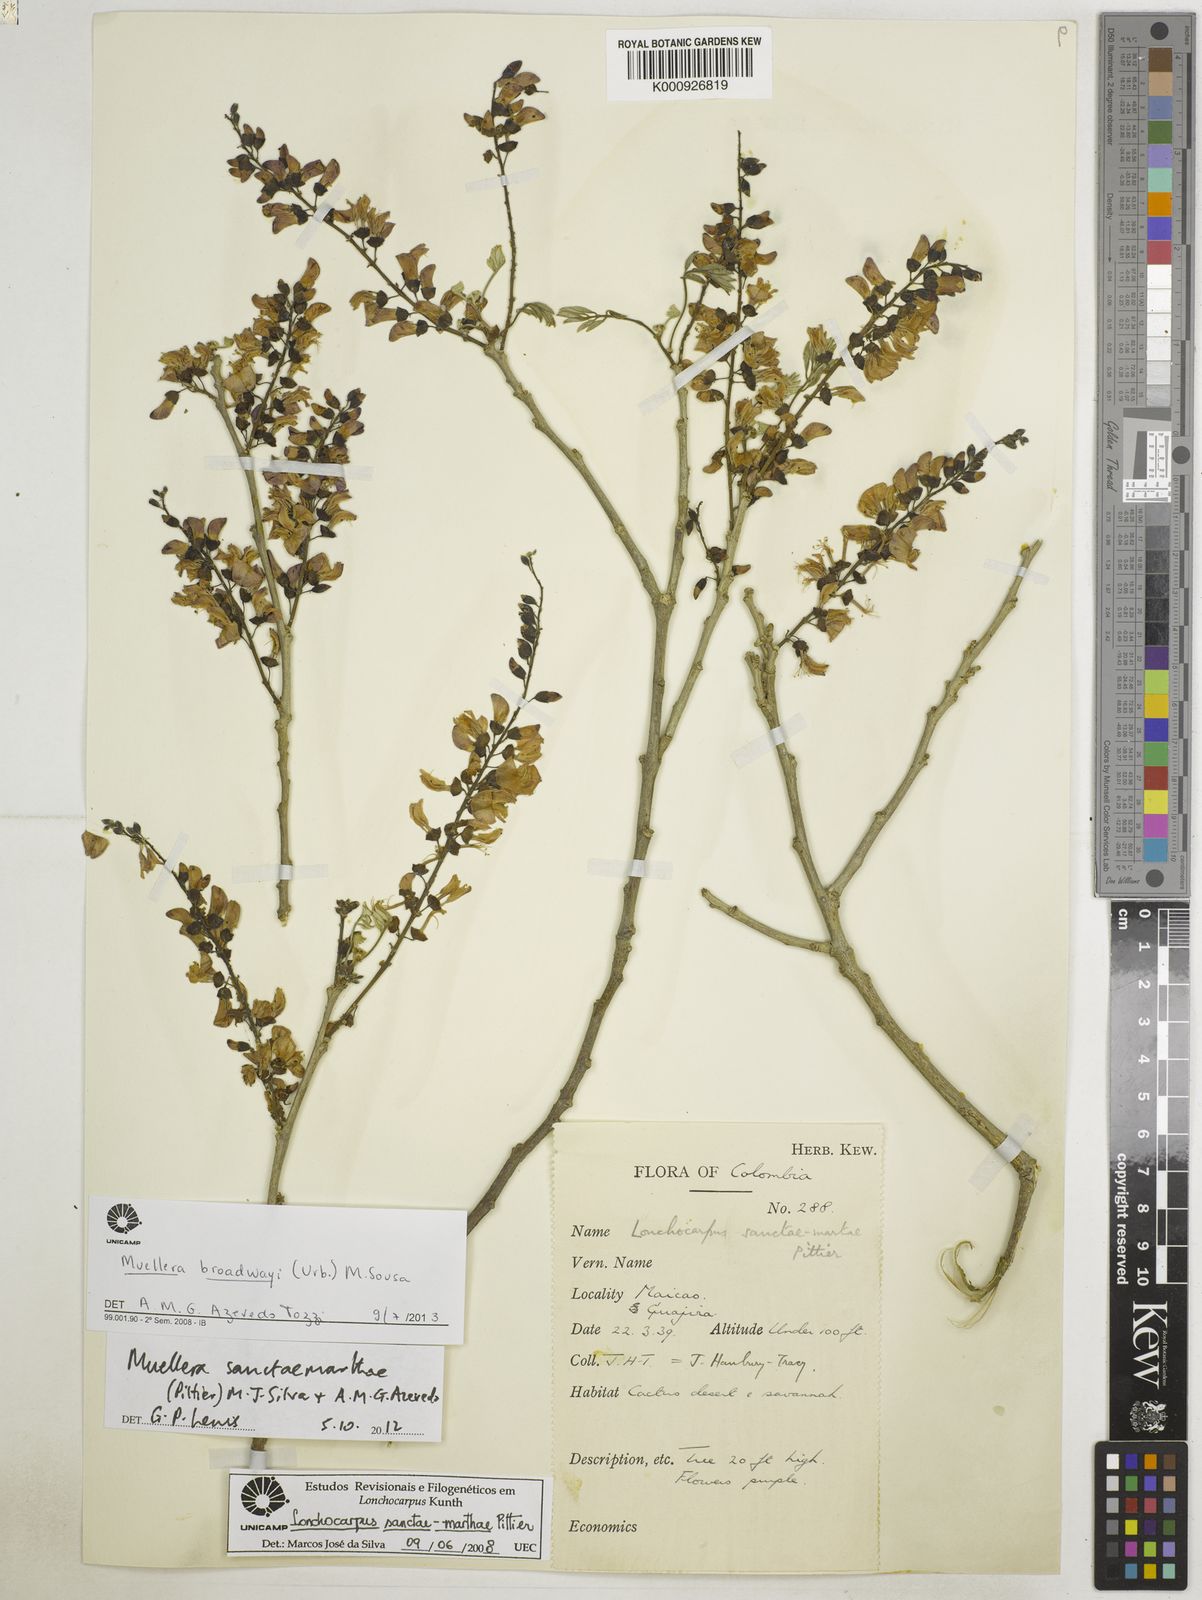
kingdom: Plantae
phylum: Tracheophyta
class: Magnoliopsida
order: Fabales
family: Fabaceae
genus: Muellera
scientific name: Muellera broadwayi
